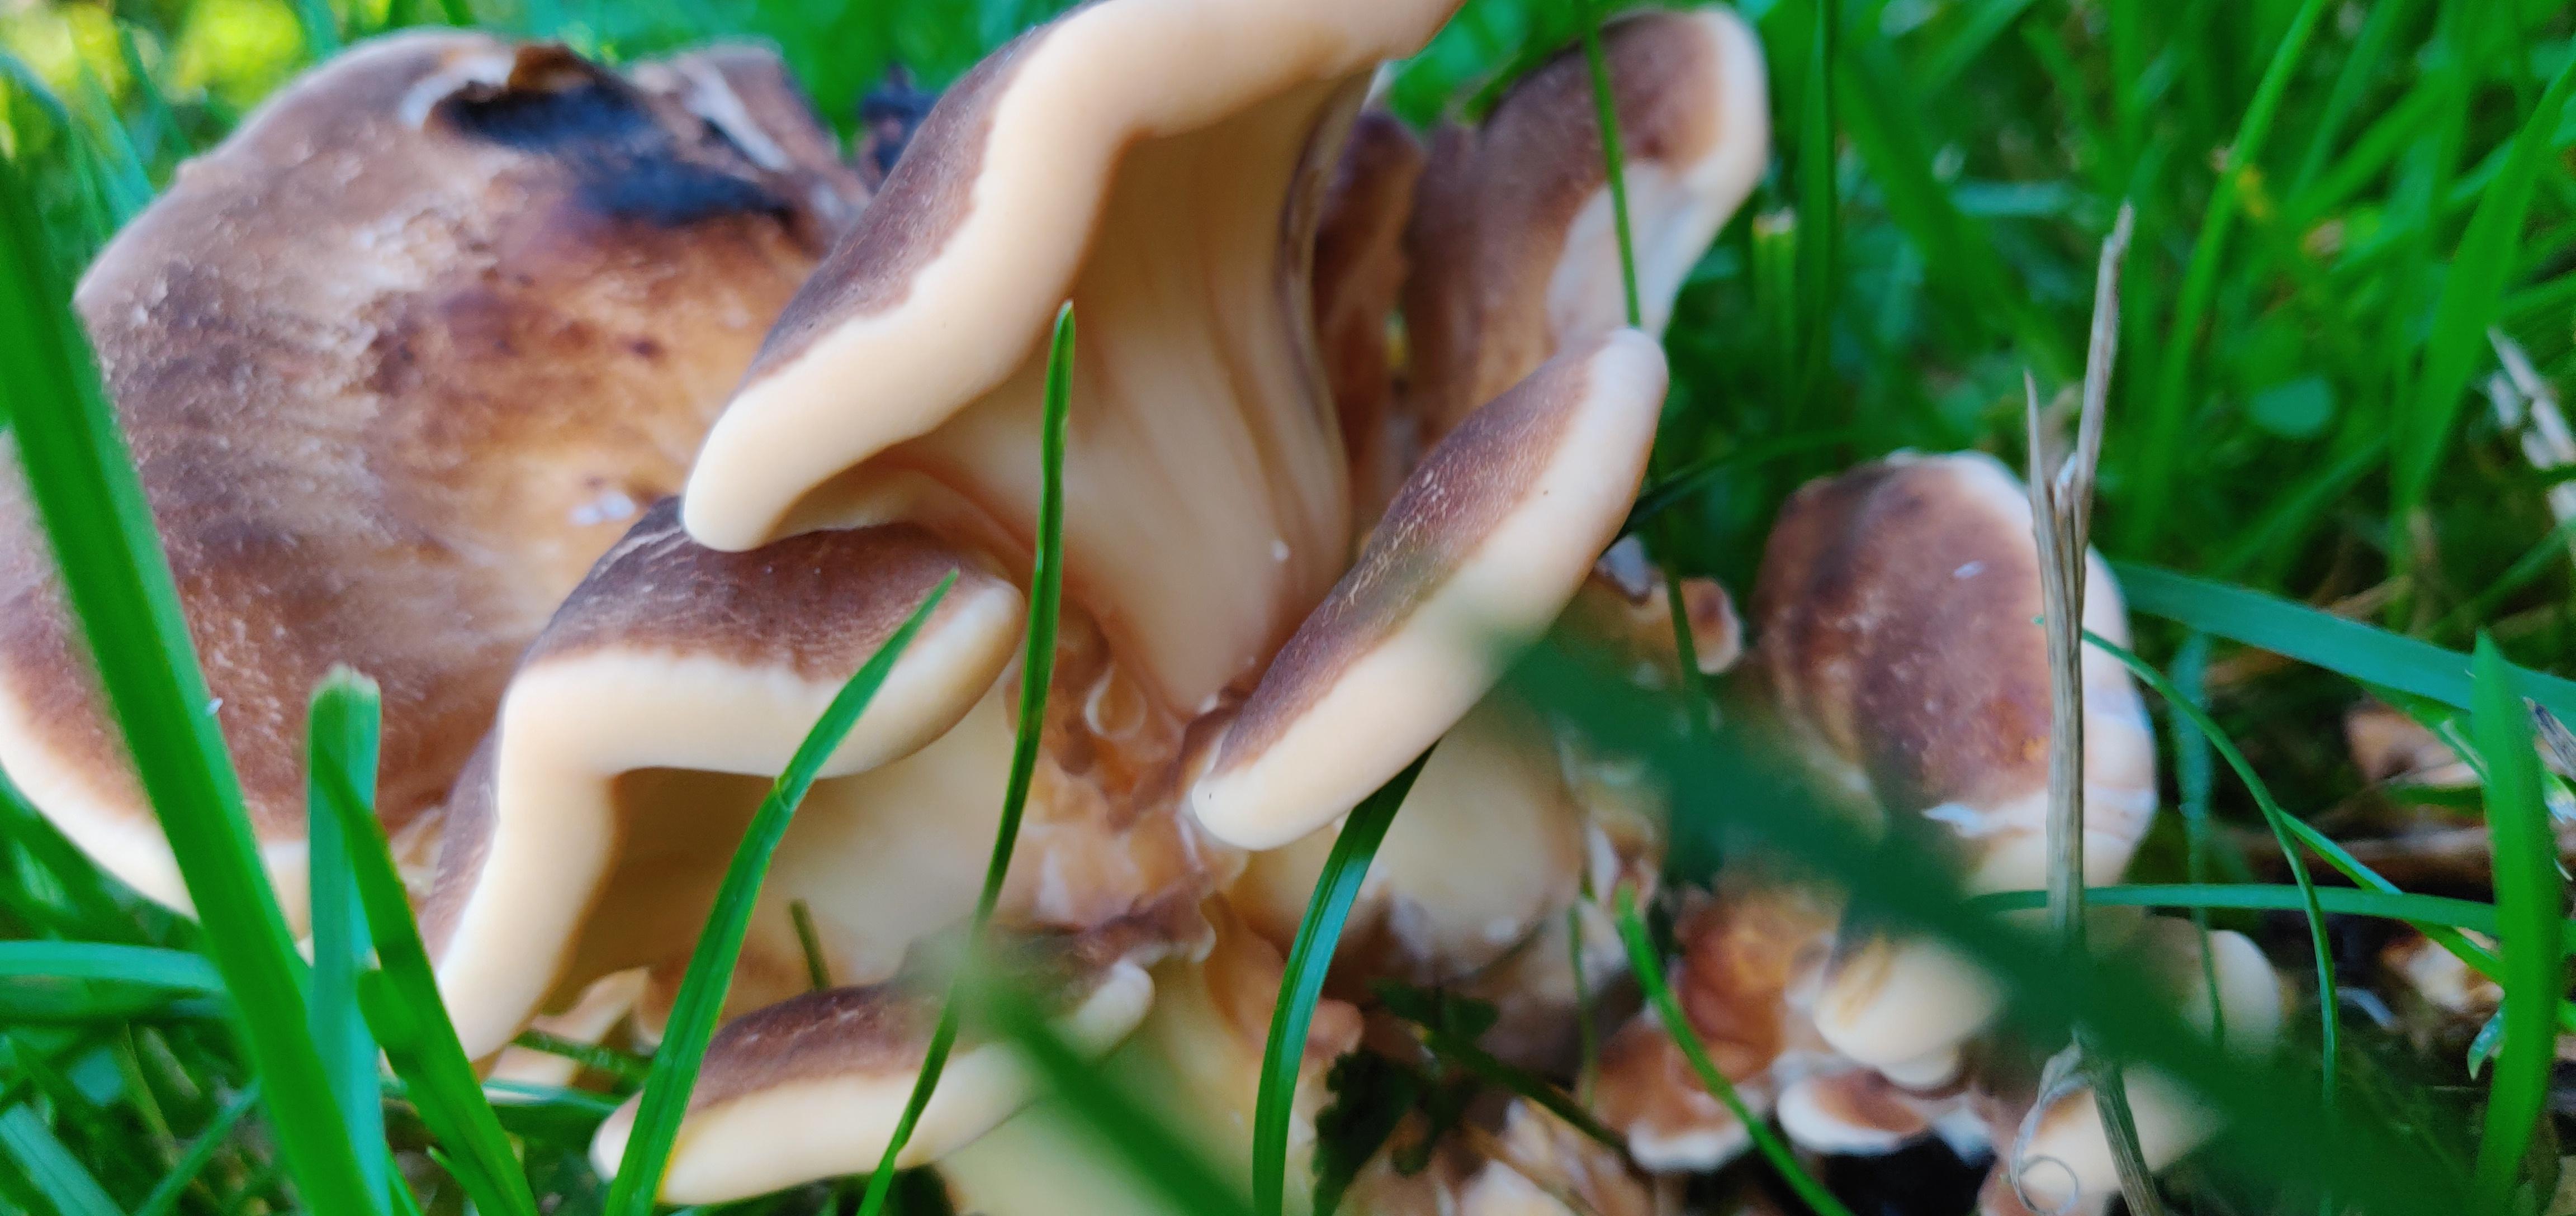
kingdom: Fungi
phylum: Basidiomycota
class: Agaricomycetes
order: Polyporales
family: Meripilaceae
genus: Meripilus
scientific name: Meripilus giganteus
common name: kæmpeporesvamp
